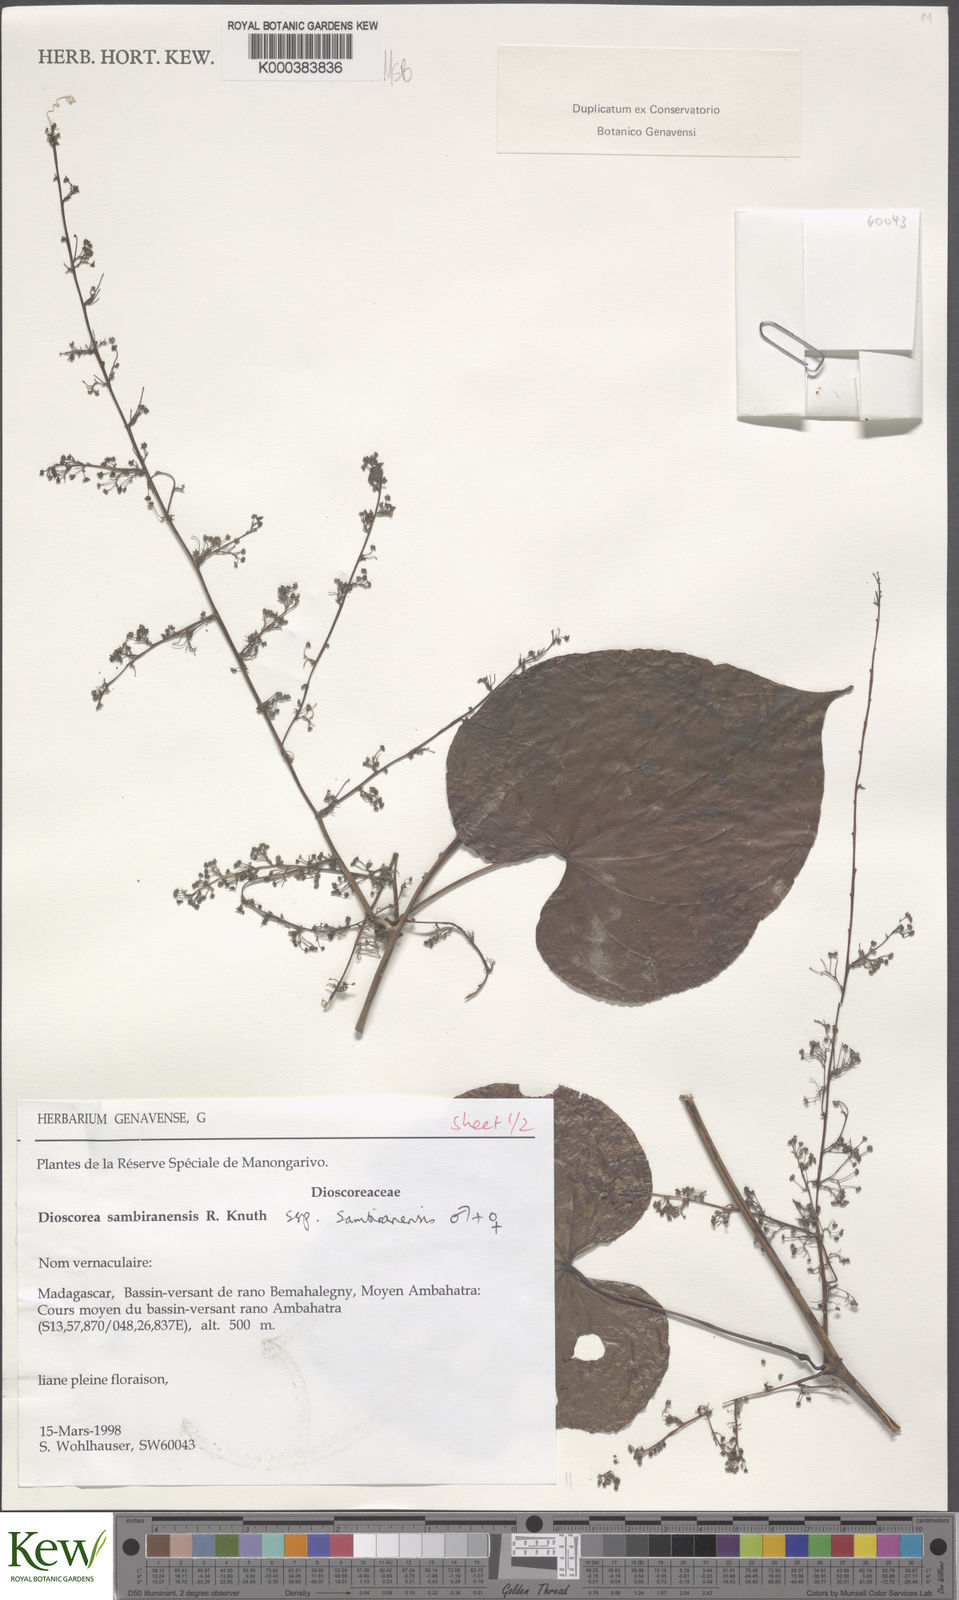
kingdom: Plantae
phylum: Tracheophyta
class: Liliopsida
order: Dioscoreales
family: Dioscoreaceae
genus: Dioscorea
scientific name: Dioscorea sambiranensis
